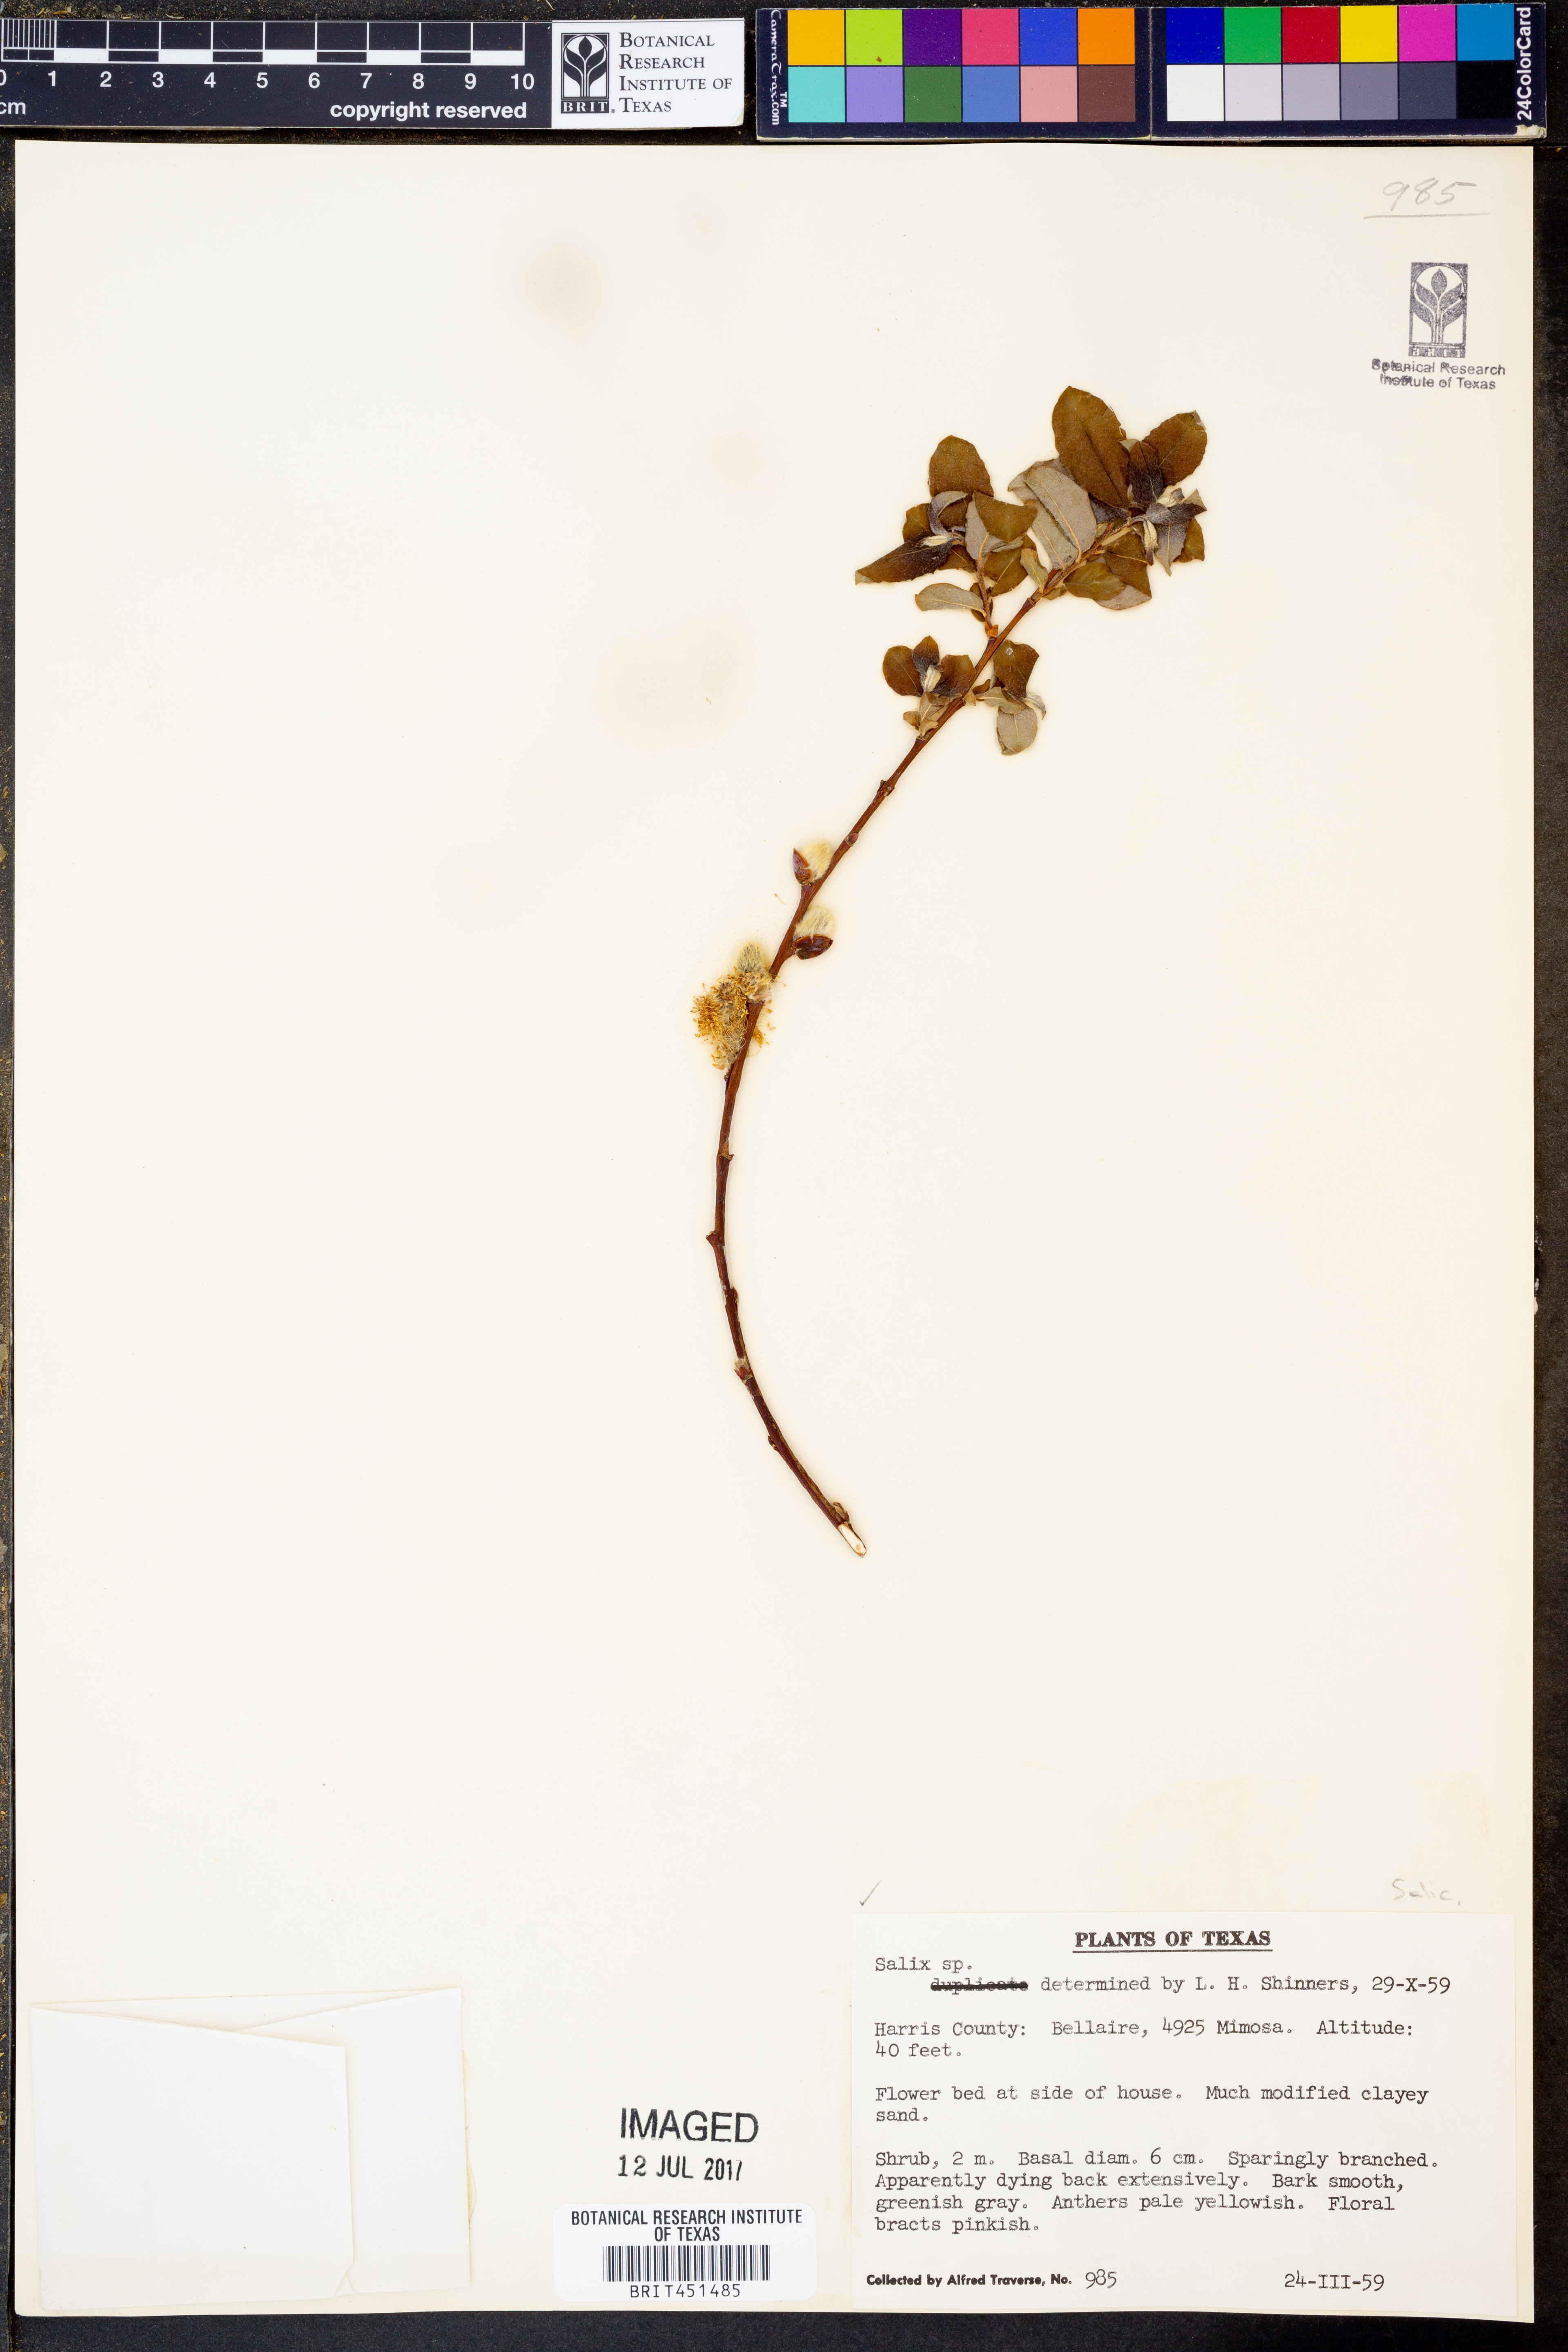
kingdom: Plantae
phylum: Tracheophyta
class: Magnoliopsida
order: Malpighiales
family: Salicaceae
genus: Salix
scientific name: Salix
